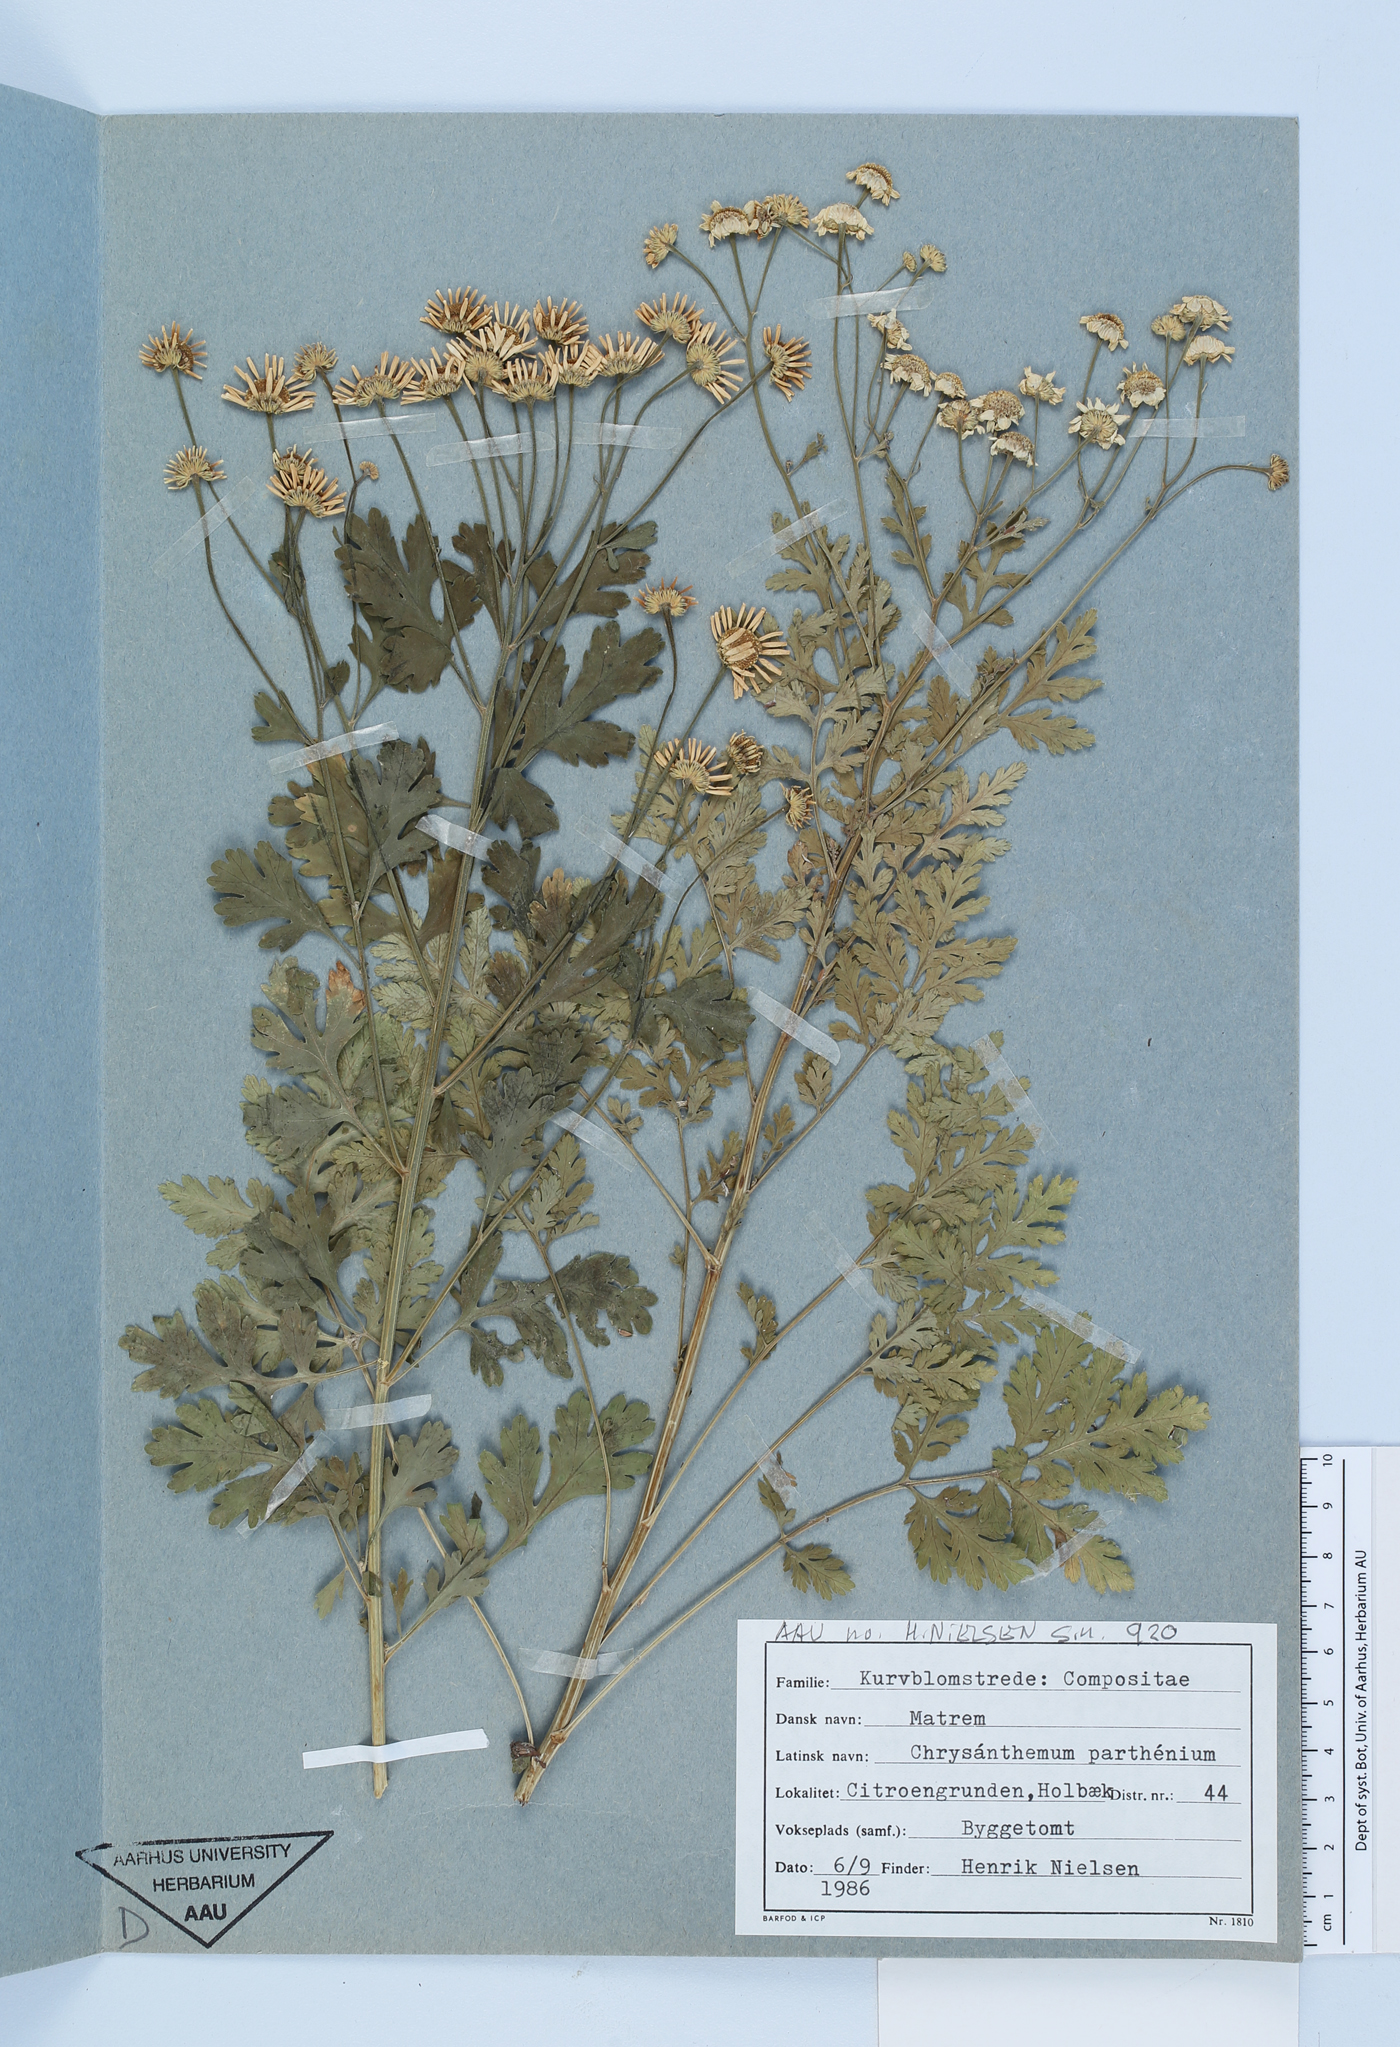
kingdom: Plantae
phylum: Tracheophyta
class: Magnoliopsida
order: Asterales
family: Asteraceae
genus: Tanacetum
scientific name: Tanacetum parthenium
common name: Feverfew
